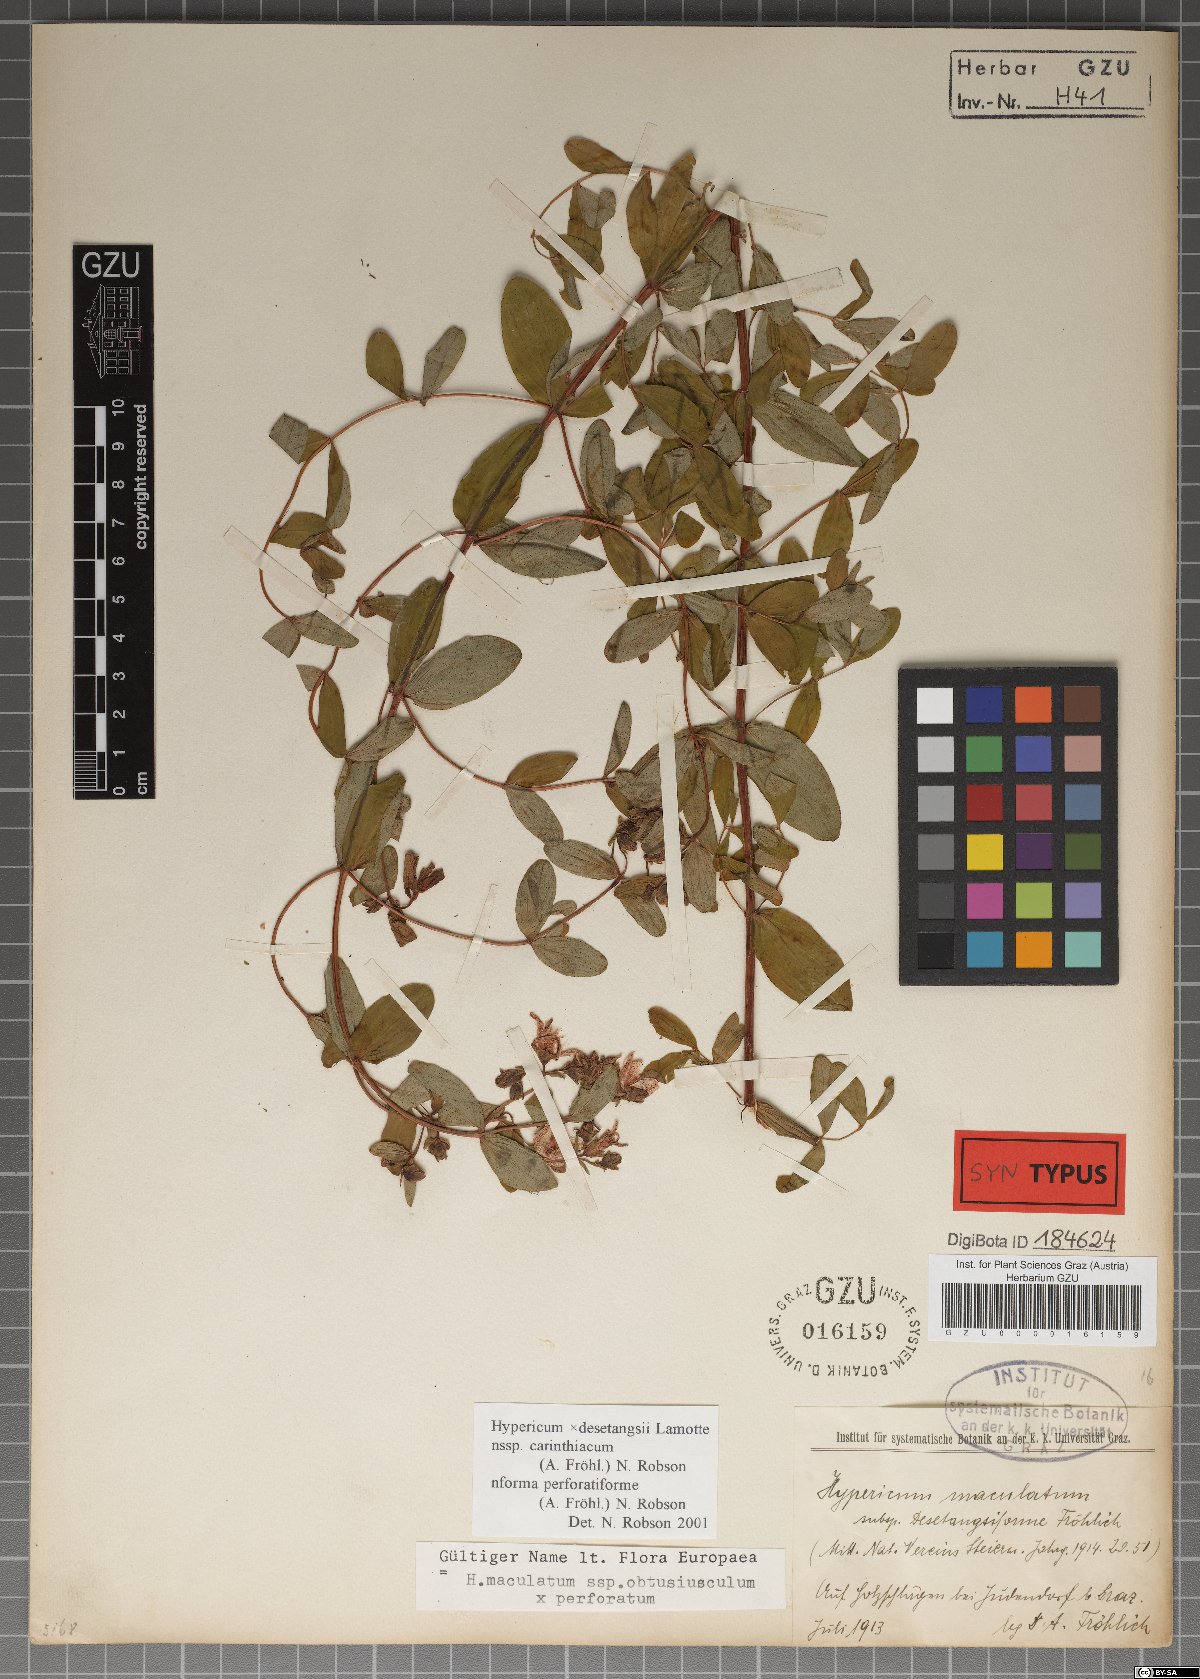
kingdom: Plantae
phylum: Tracheophyta
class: Magnoliopsida
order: Malpighiales
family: Hypericaceae
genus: Hypericum
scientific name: Hypericum carinthiacum
